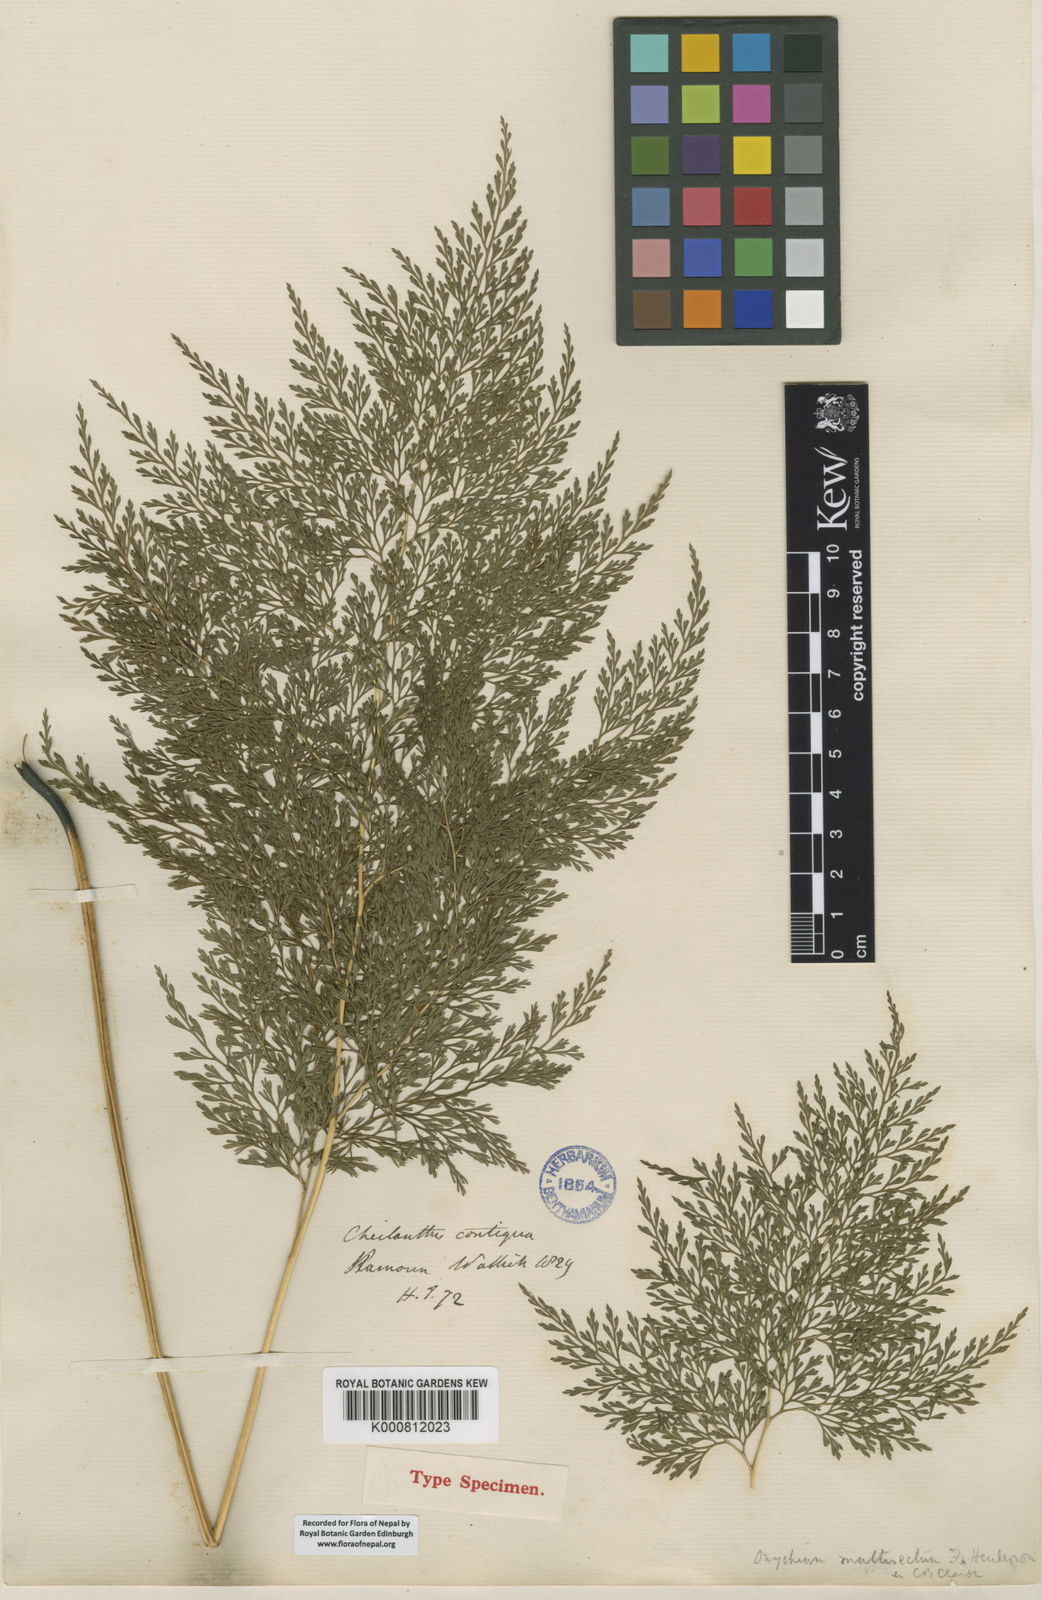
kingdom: Plantae
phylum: Tracheophyta
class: Polypodiopsida
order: Polypodiales
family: Pteridaceae
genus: Onychium
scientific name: Onychium cryptogrammoides
